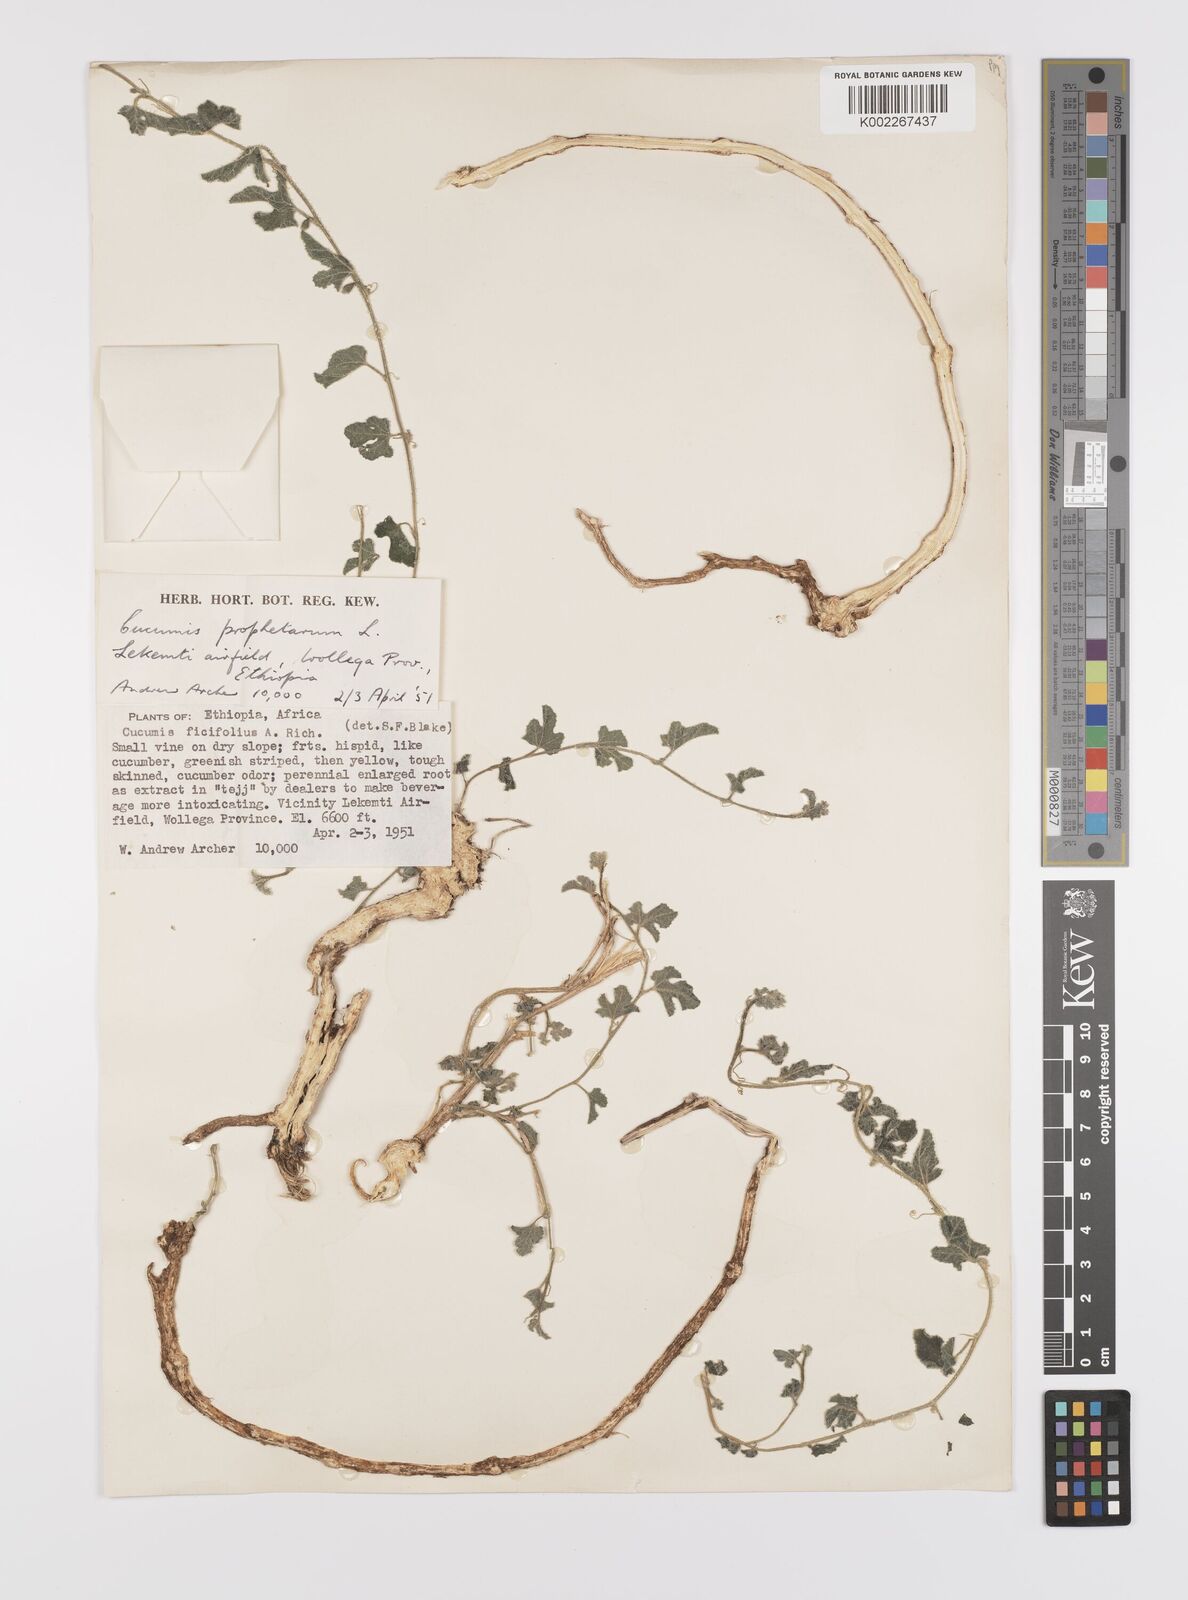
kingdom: Plantae
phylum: Tracheophyta
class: Magnoliopsida
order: Cucurbitales
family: Cucurbitaceae
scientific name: Cucurbitaceae
